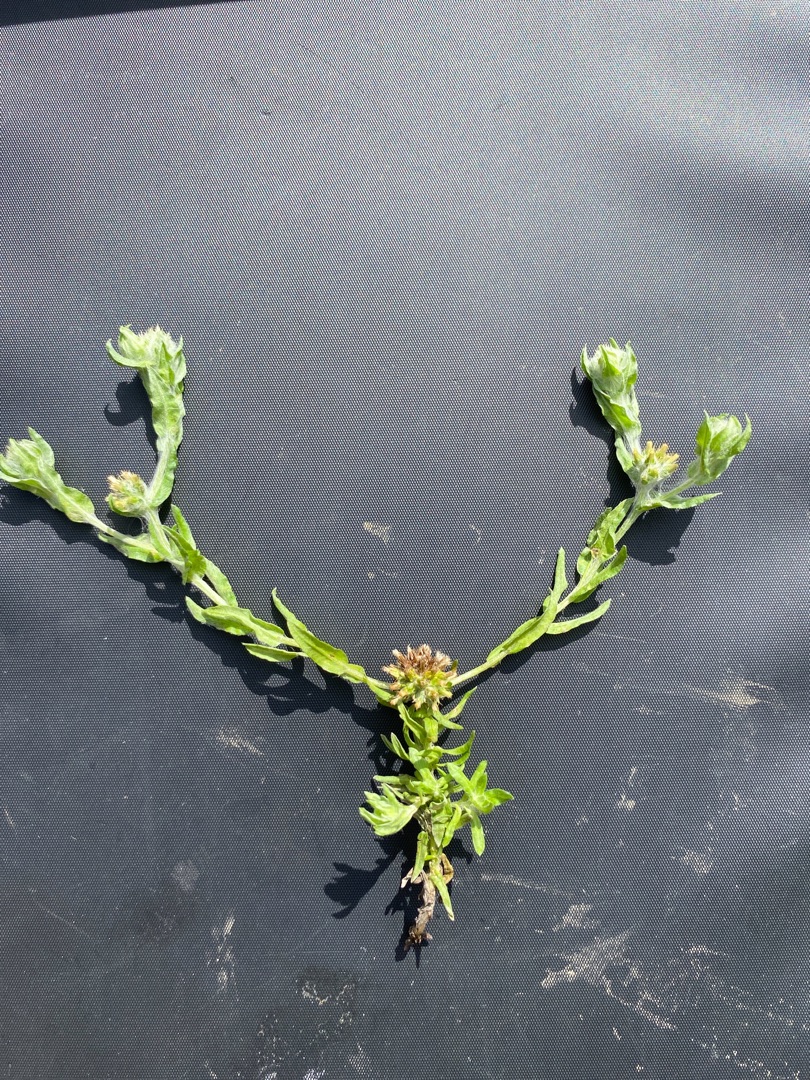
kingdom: Plantae
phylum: Tracheophyta
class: Magnoliopsida
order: Asterales
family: Asteraceae
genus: Filago
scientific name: Filago germanica
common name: Kugle-museurt
